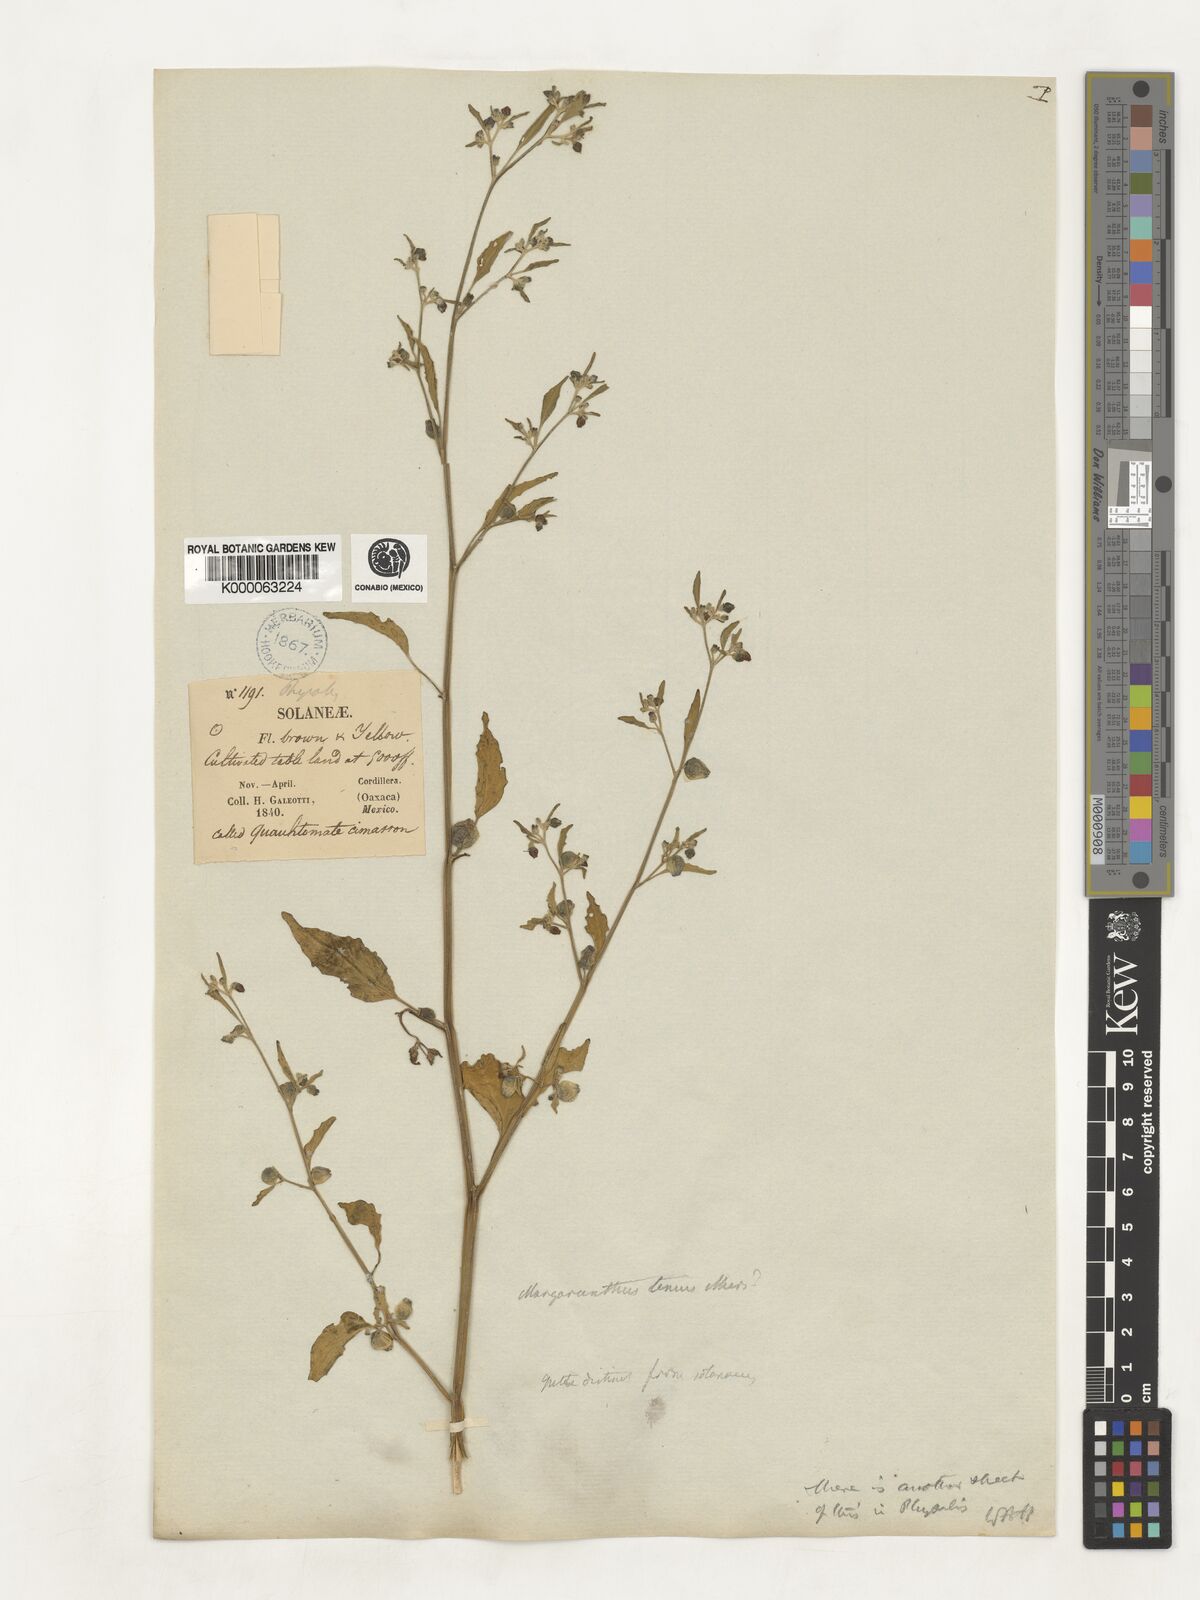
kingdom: Plantae
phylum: Tracheophyta
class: Magnoliopsida
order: Solanales
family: Solanaceae
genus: Physalis
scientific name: Physalis solanacea
